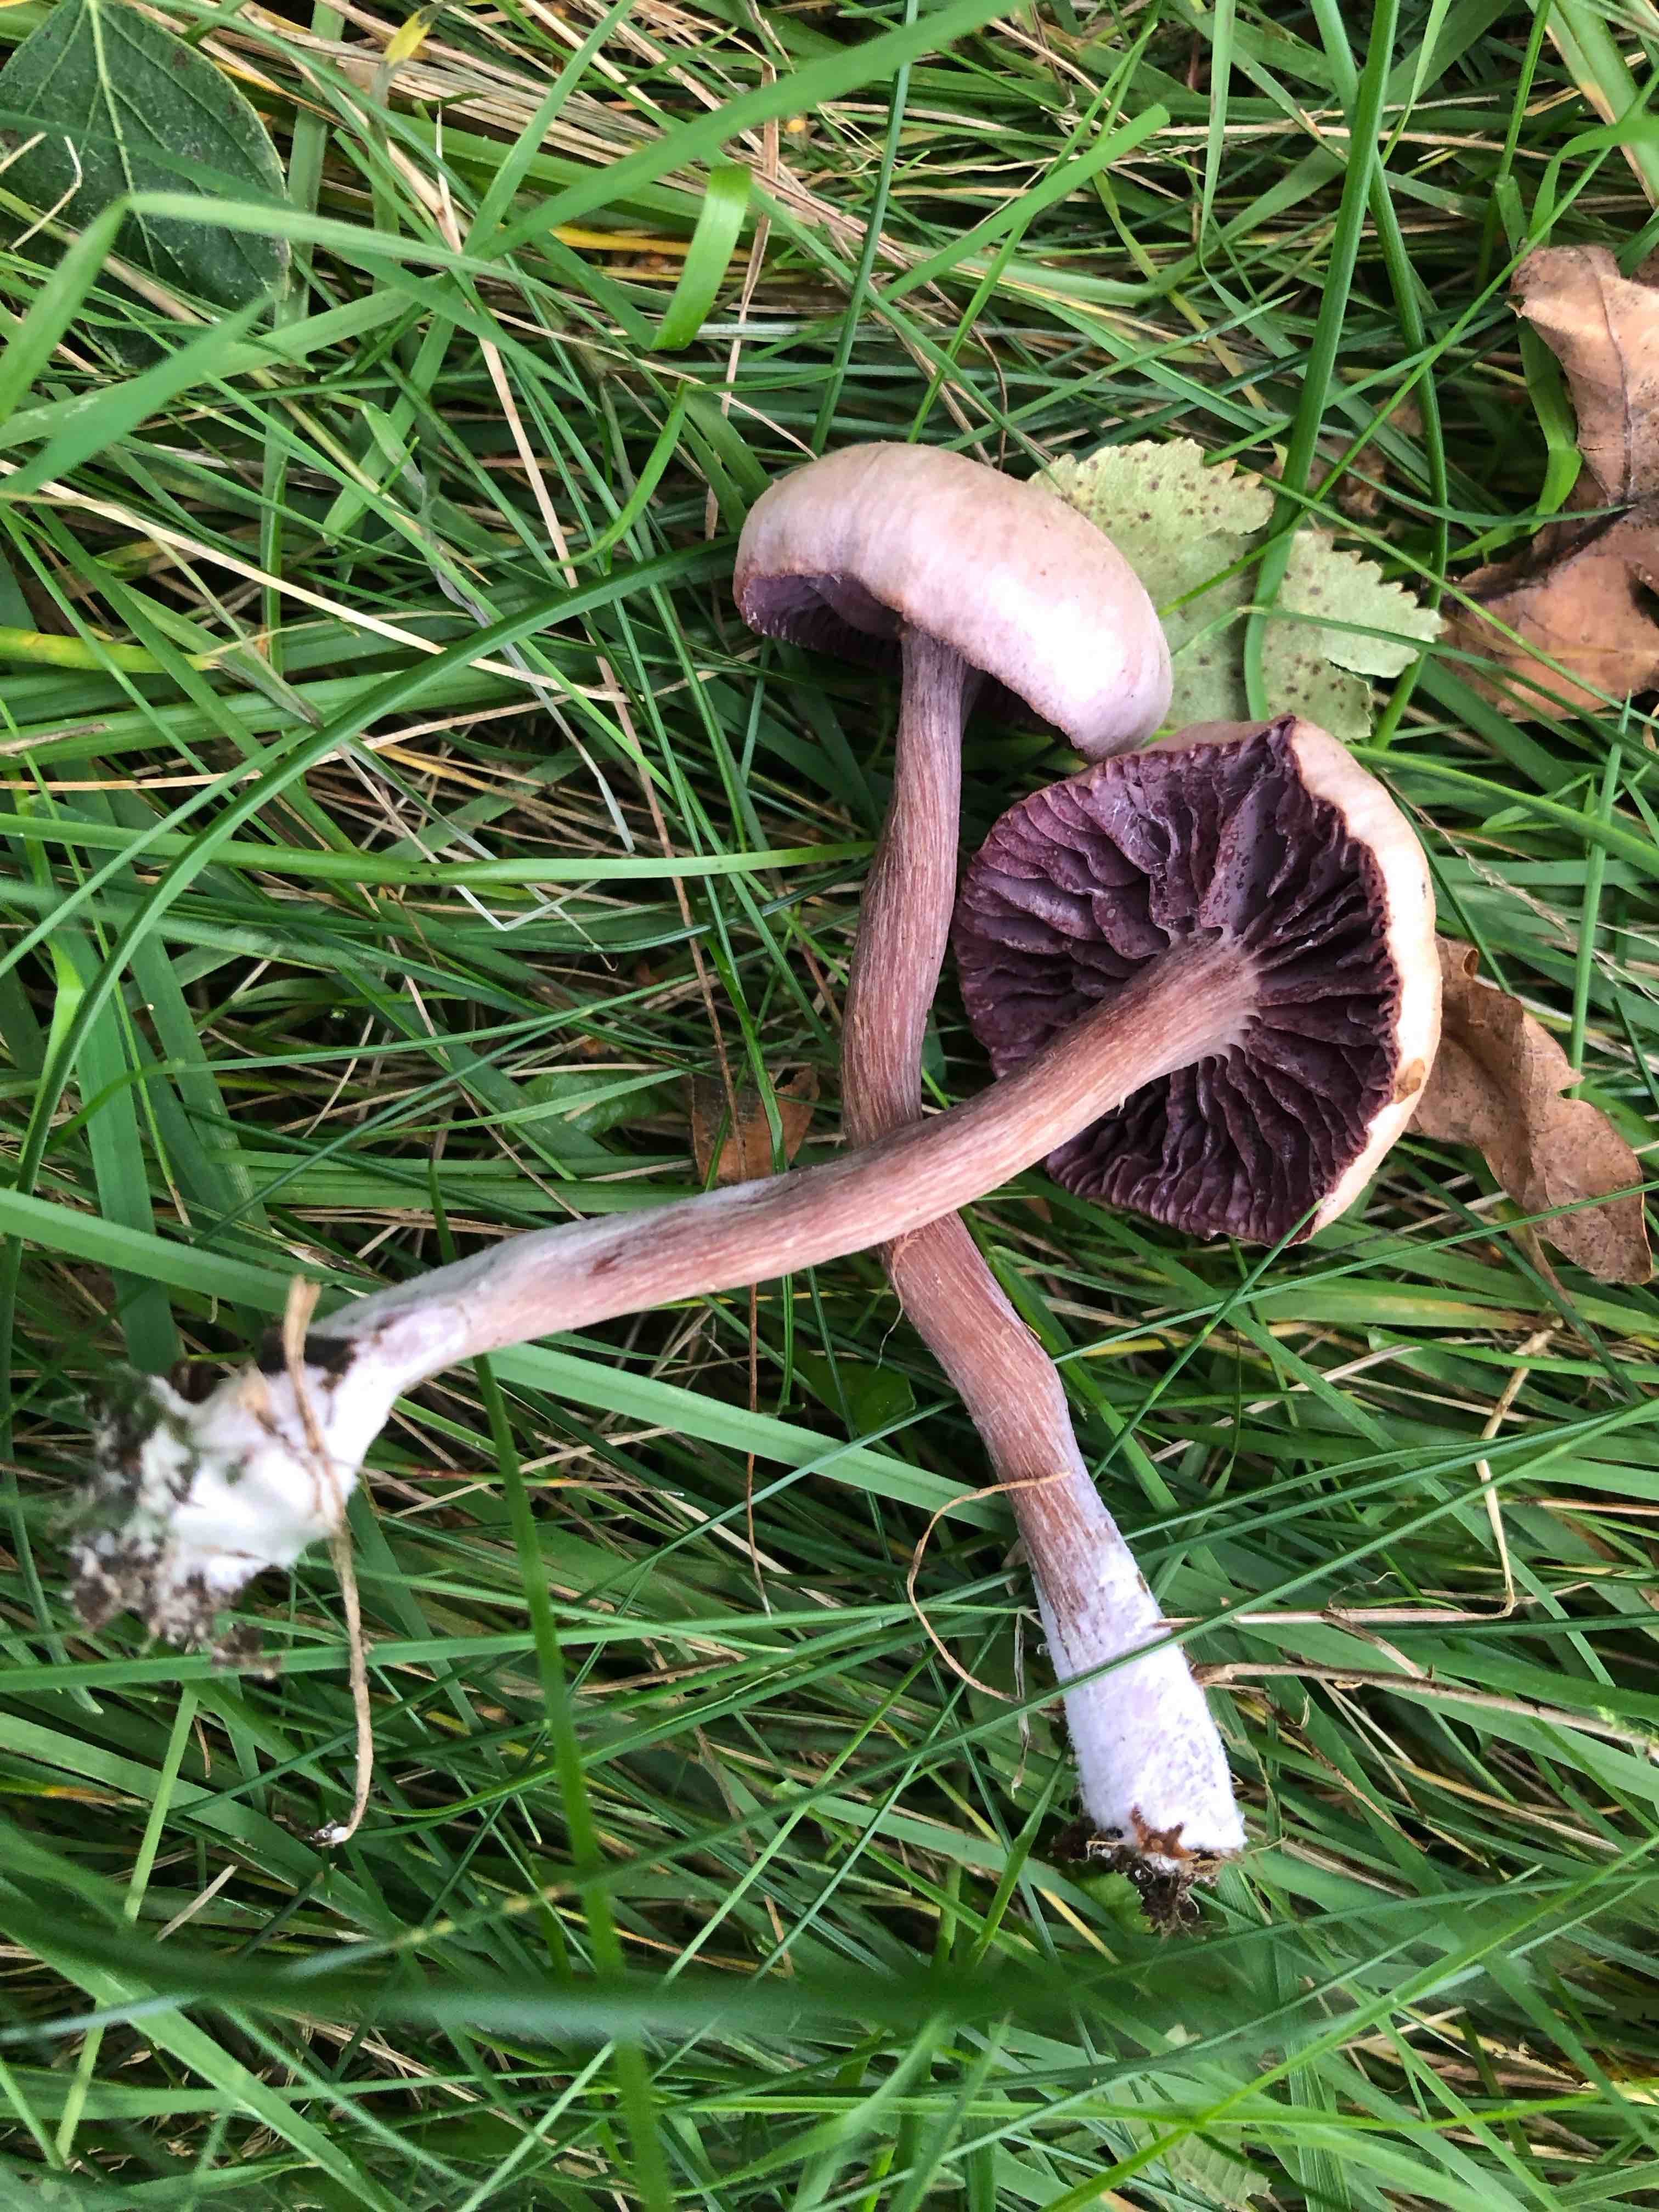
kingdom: Fungi
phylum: Basidiomycota
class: Agaricomycetes
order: Agaricales
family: Hydnangiaceae
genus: Laccaria
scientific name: Laccaria amethystina
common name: violet ametysthat
